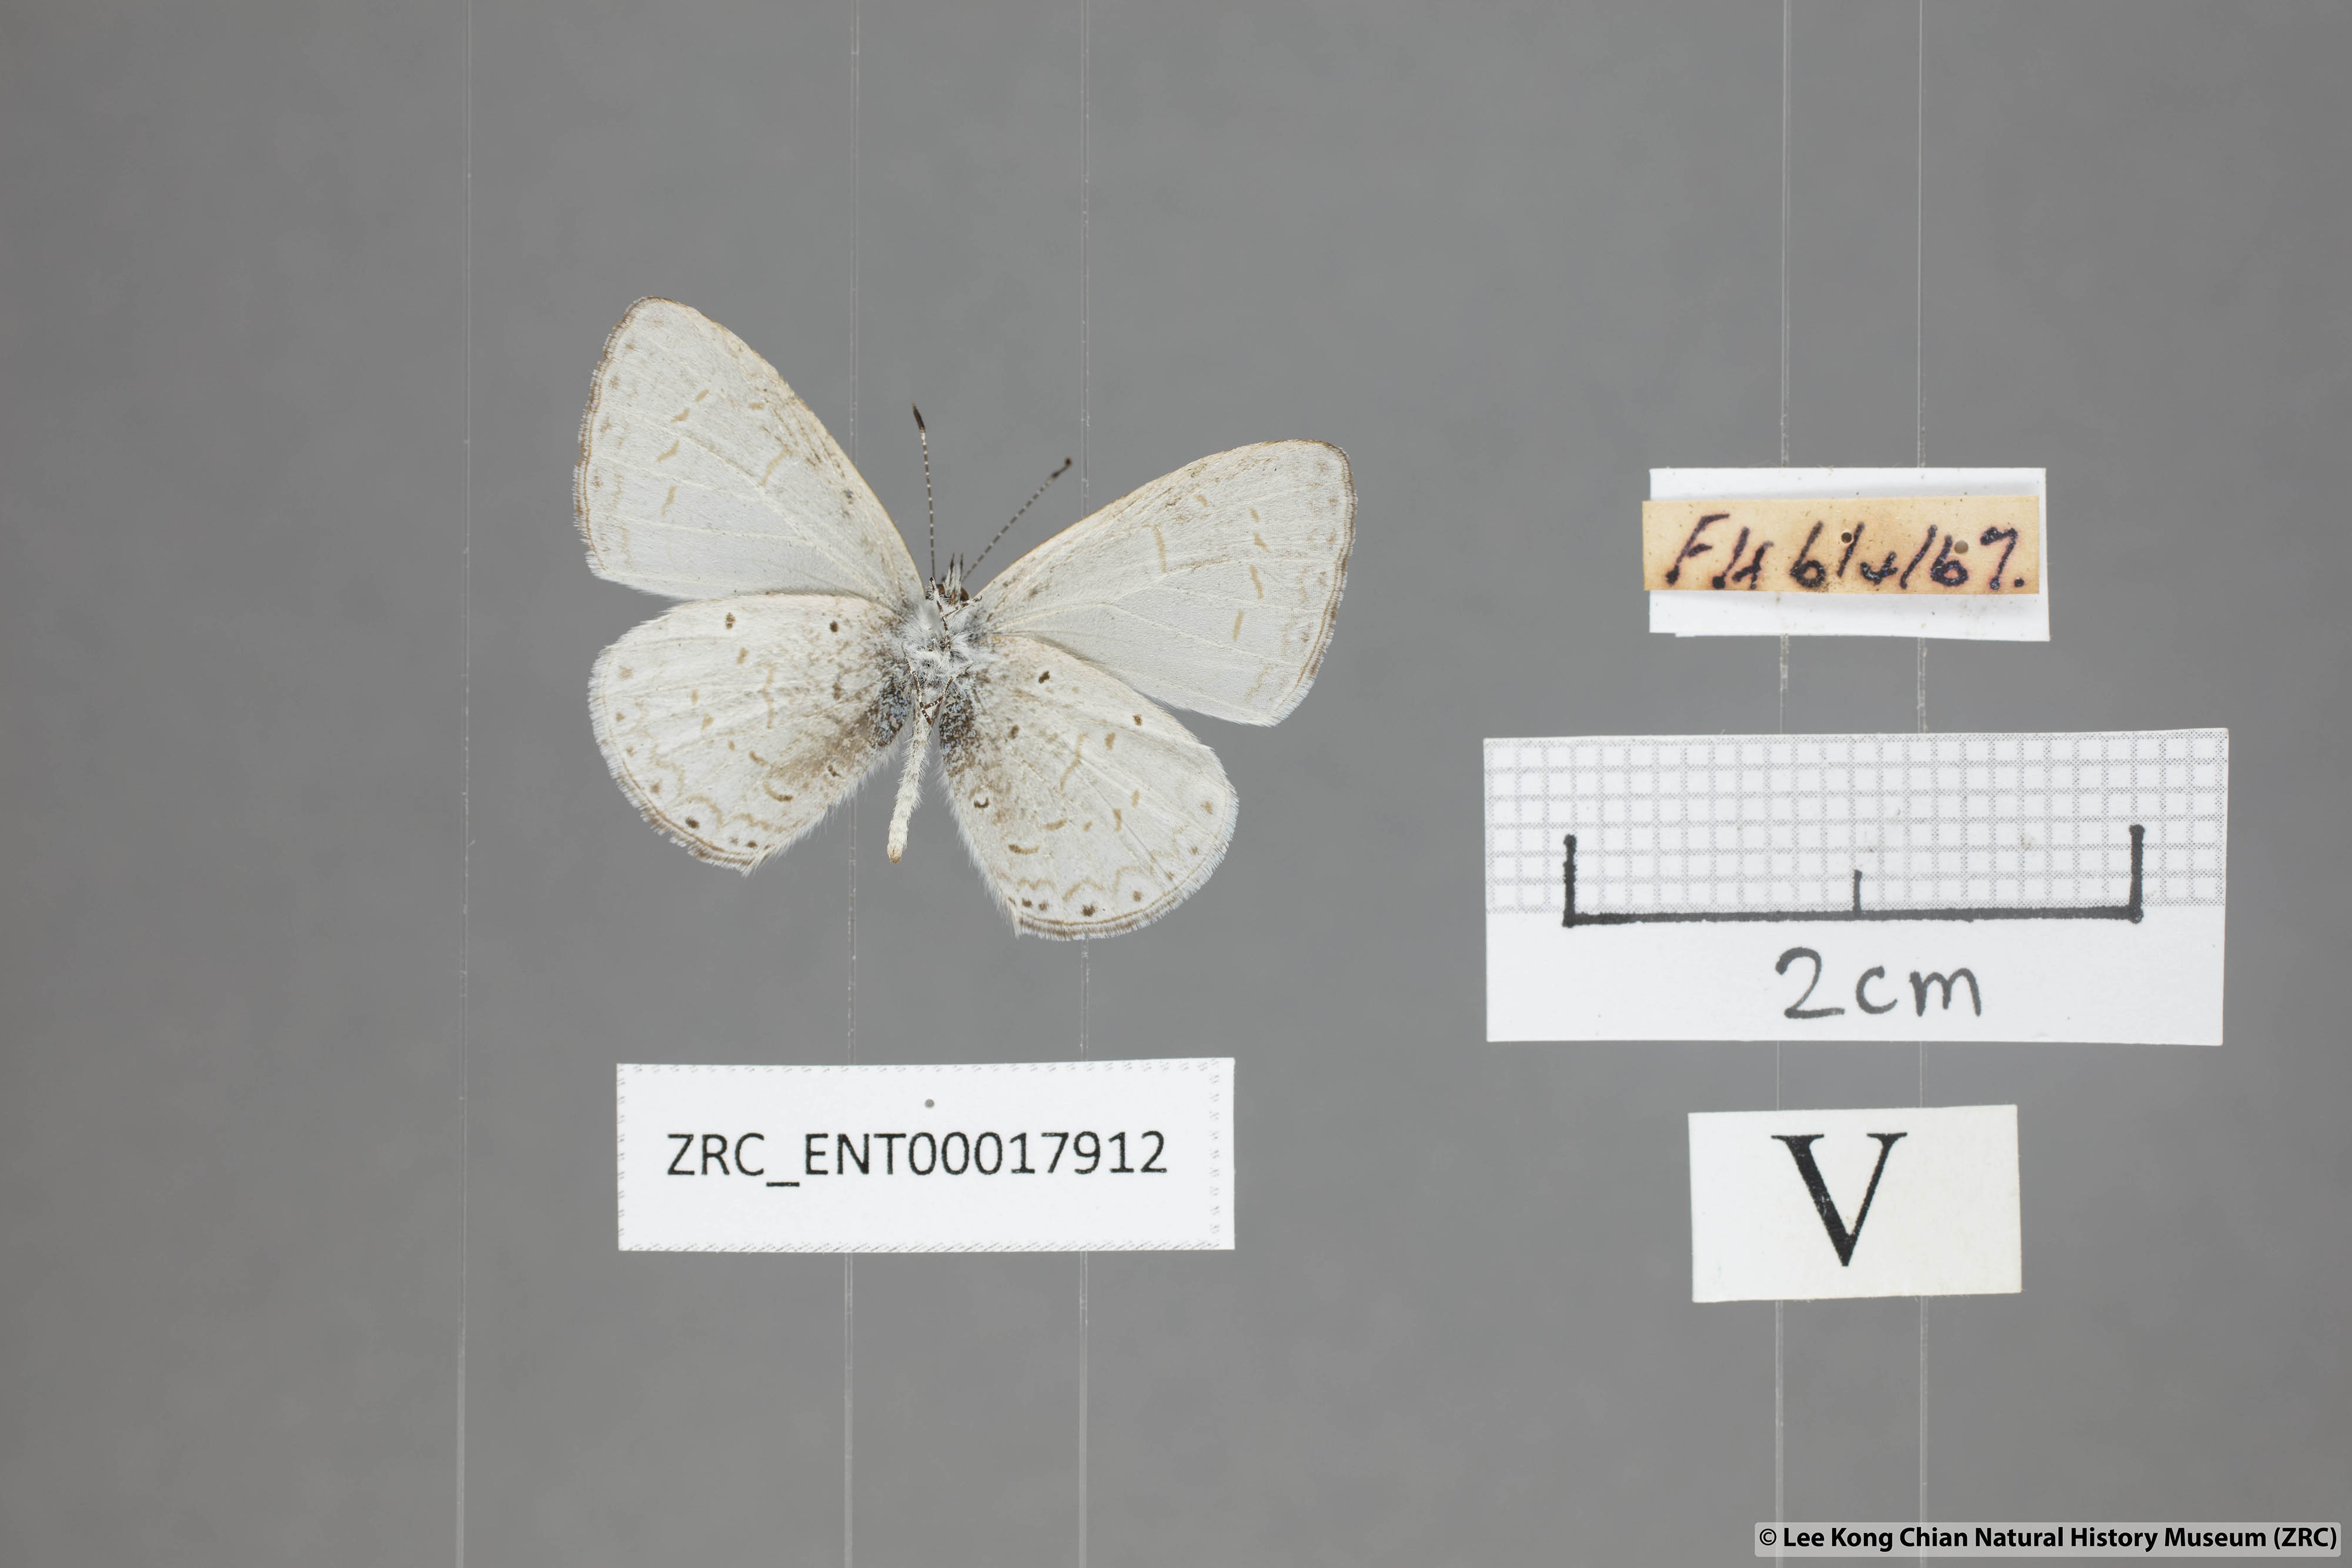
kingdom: Animalia
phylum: Arthropoda
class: Insecta
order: Lepidoptera
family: Lycaenidae
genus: Udara
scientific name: Udara
